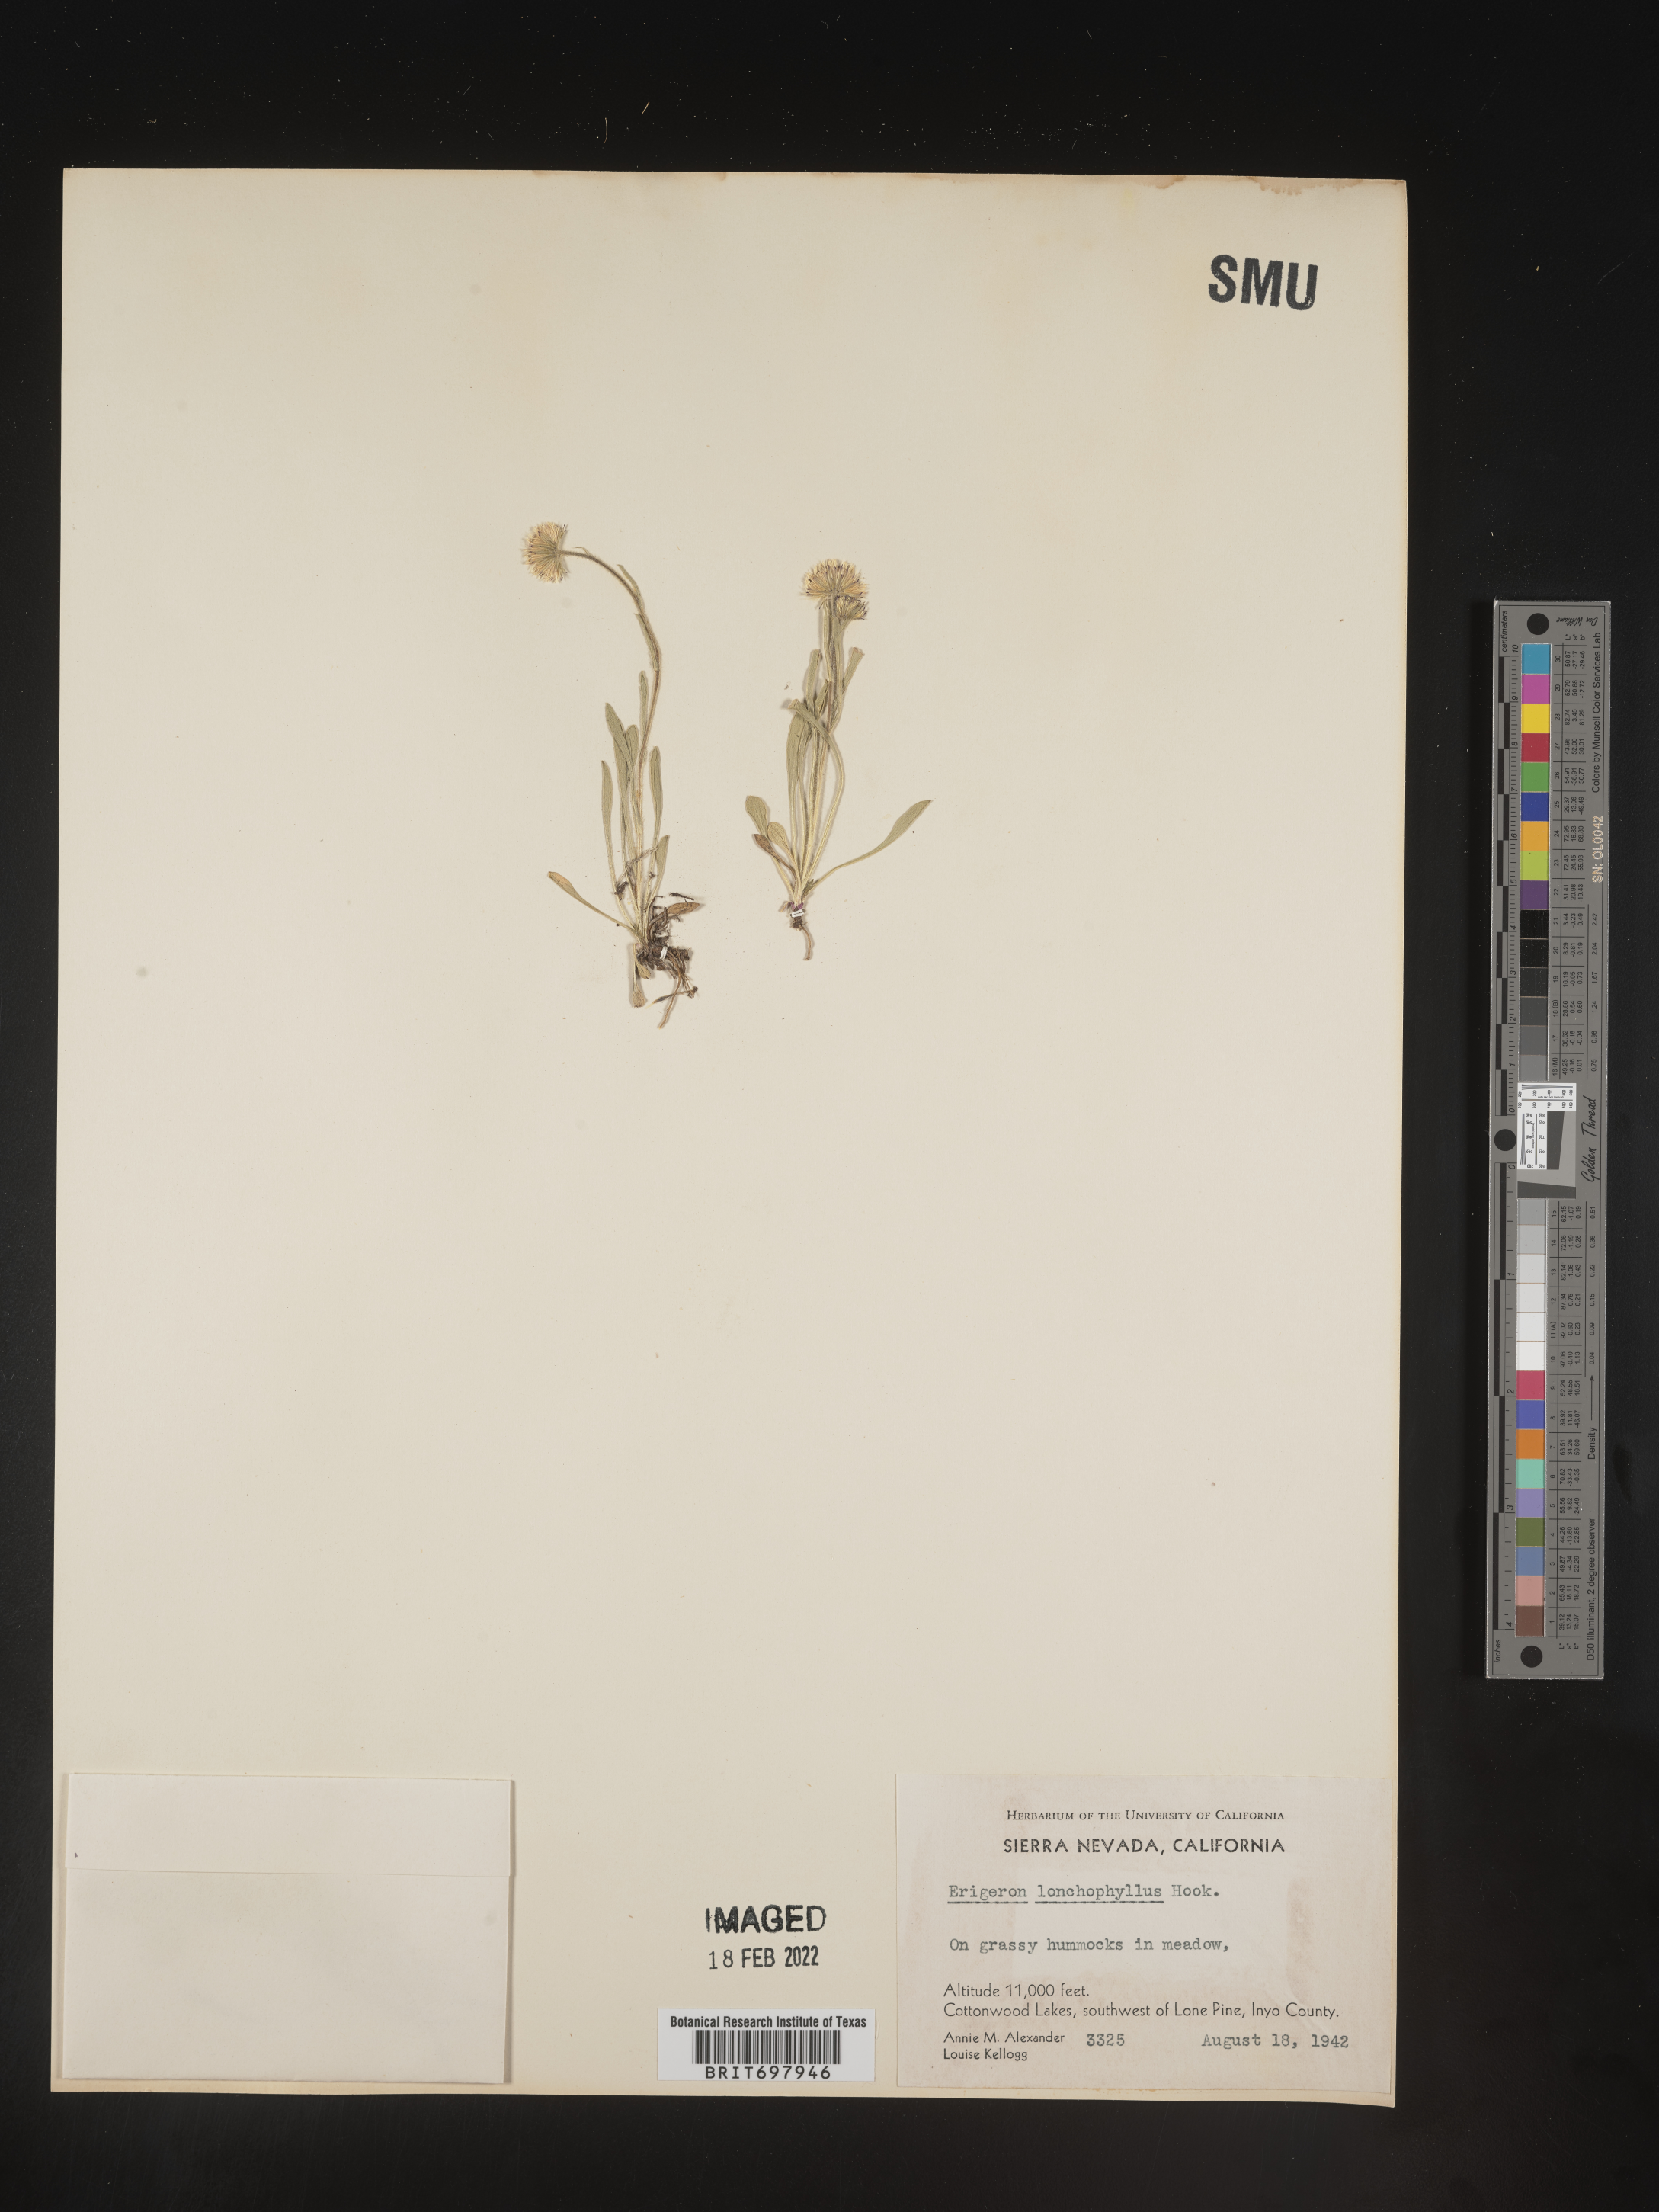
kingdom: Plantae
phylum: Tracheophyta
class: Magnoliopsida
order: Asterales
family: Asteraceae
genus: Erigeron
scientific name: Erigeron lonchophyllus
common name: Short-ray fleabane
